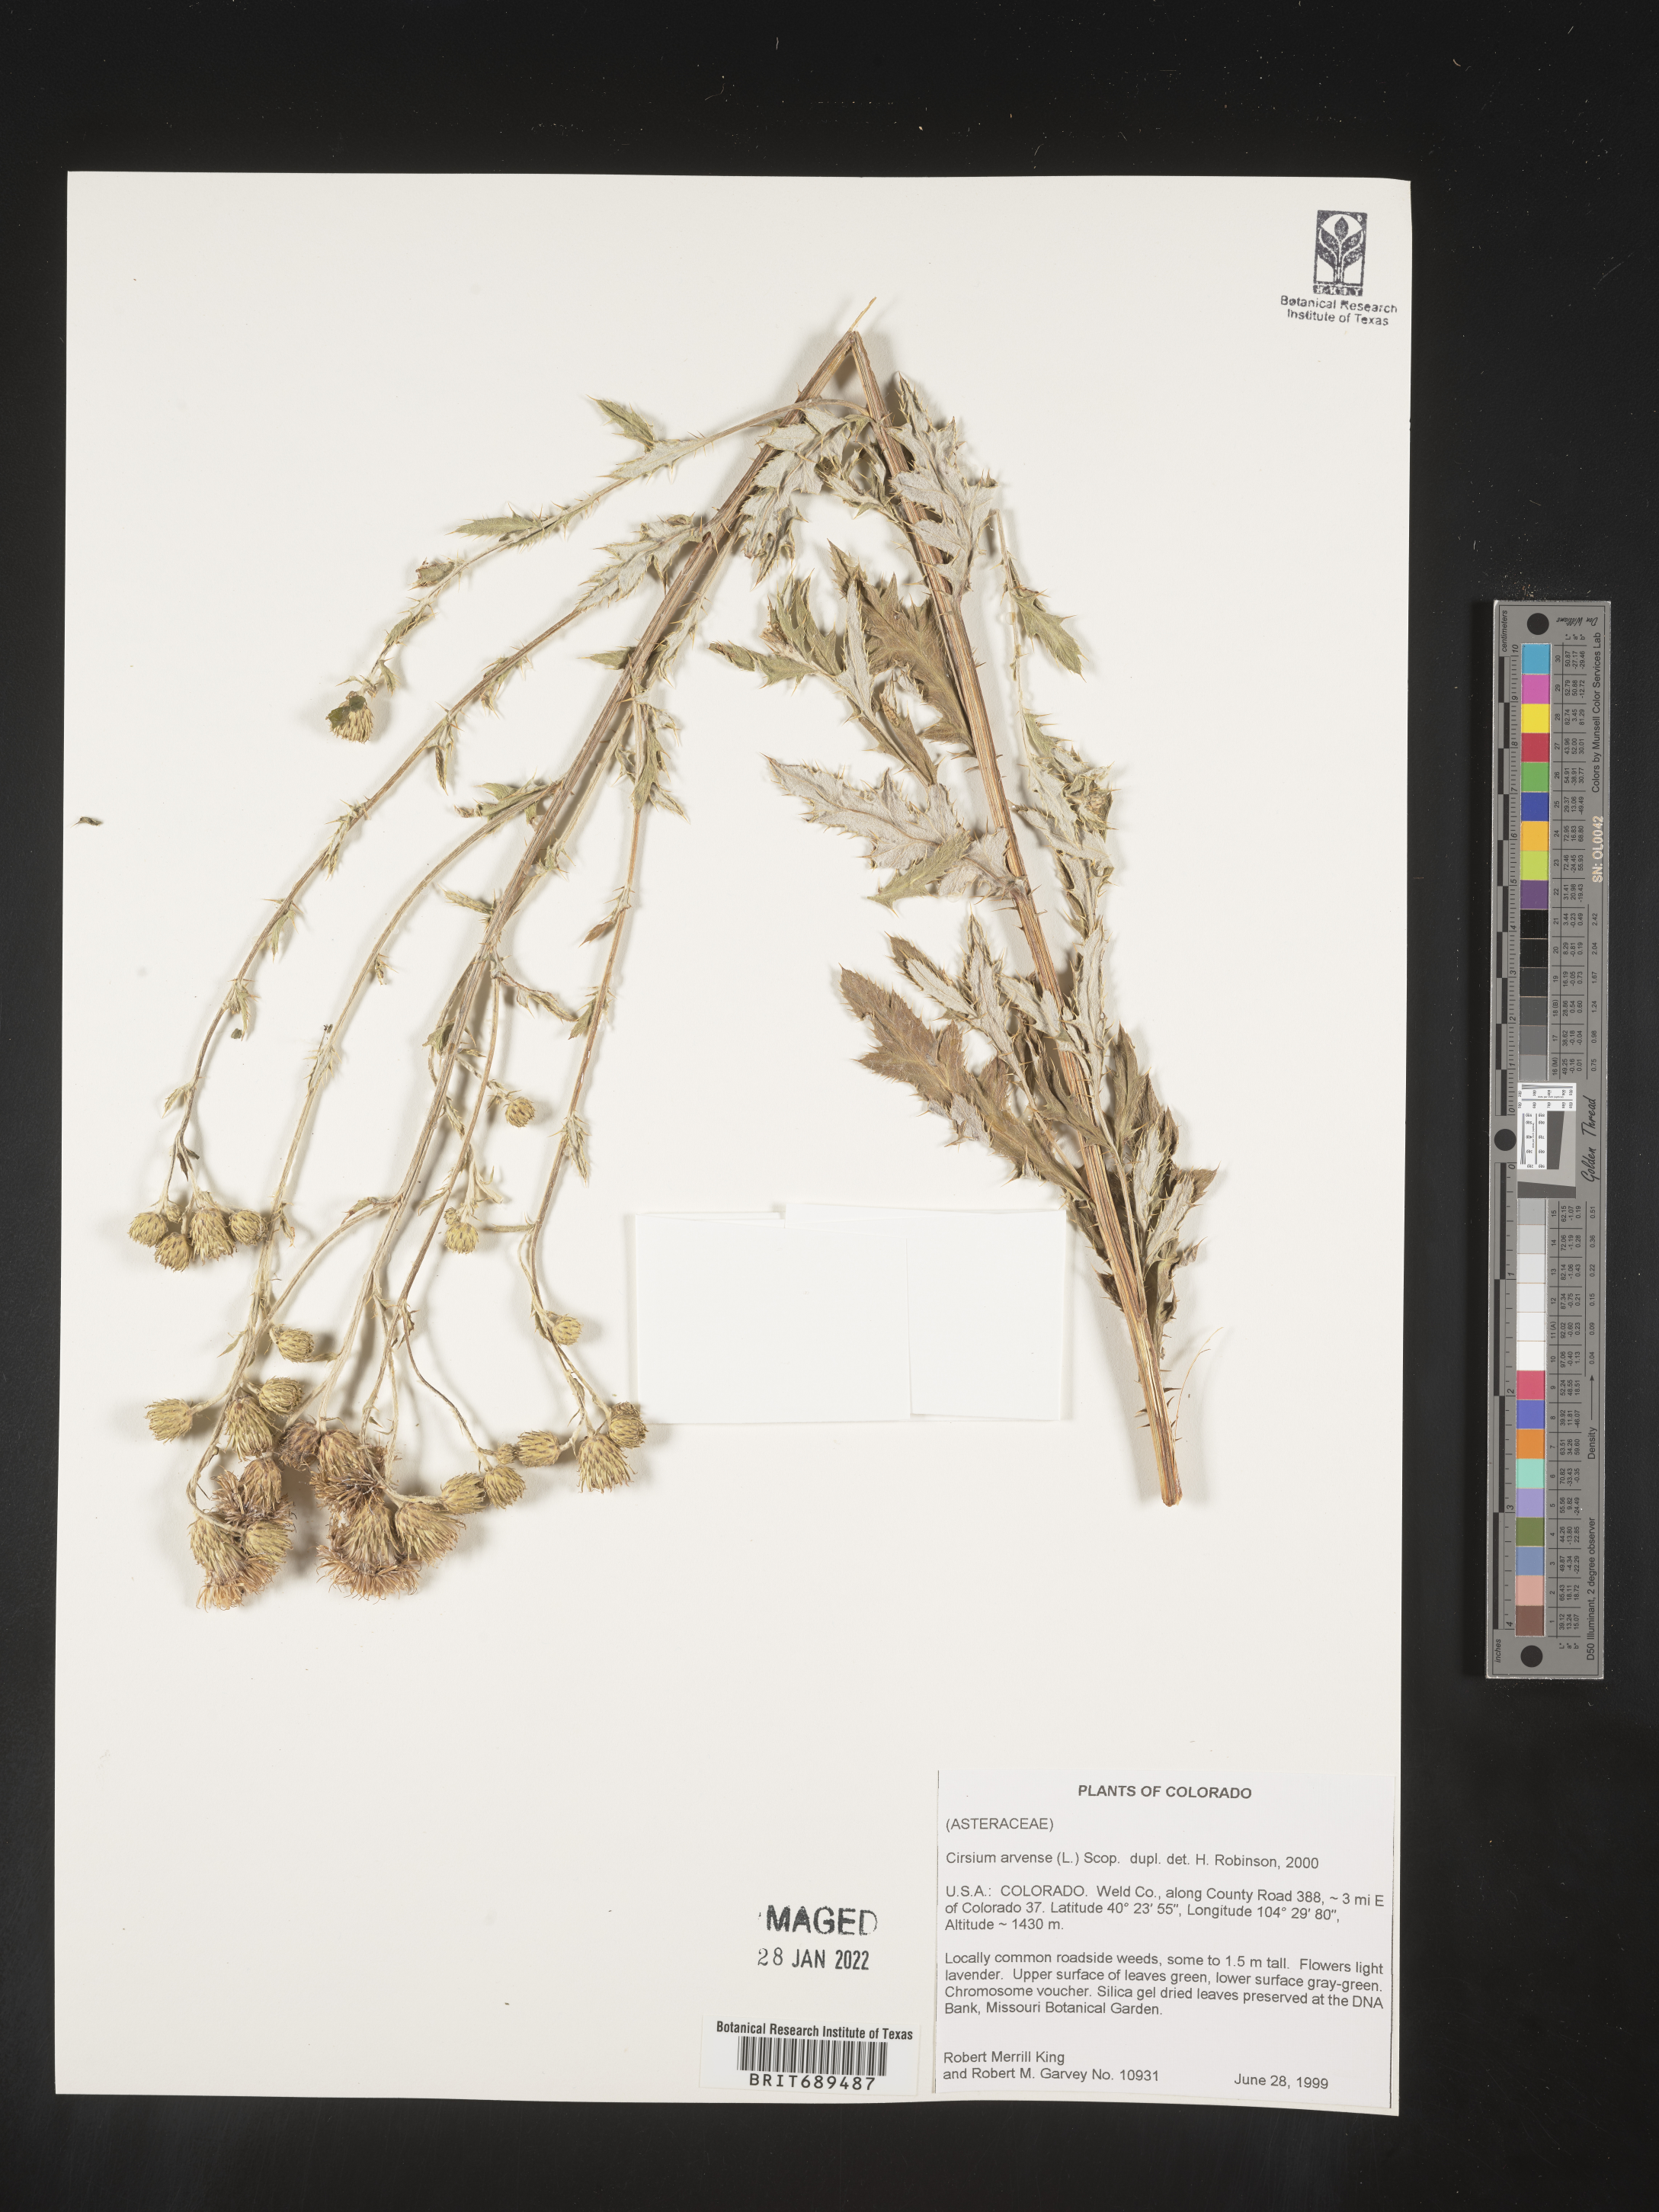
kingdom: Plantae
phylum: Tracheophyta
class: Magnoliopsida
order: Asterales
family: Asteraceae
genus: Cirsium
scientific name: Cirsium arvense
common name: Creeping thistle
